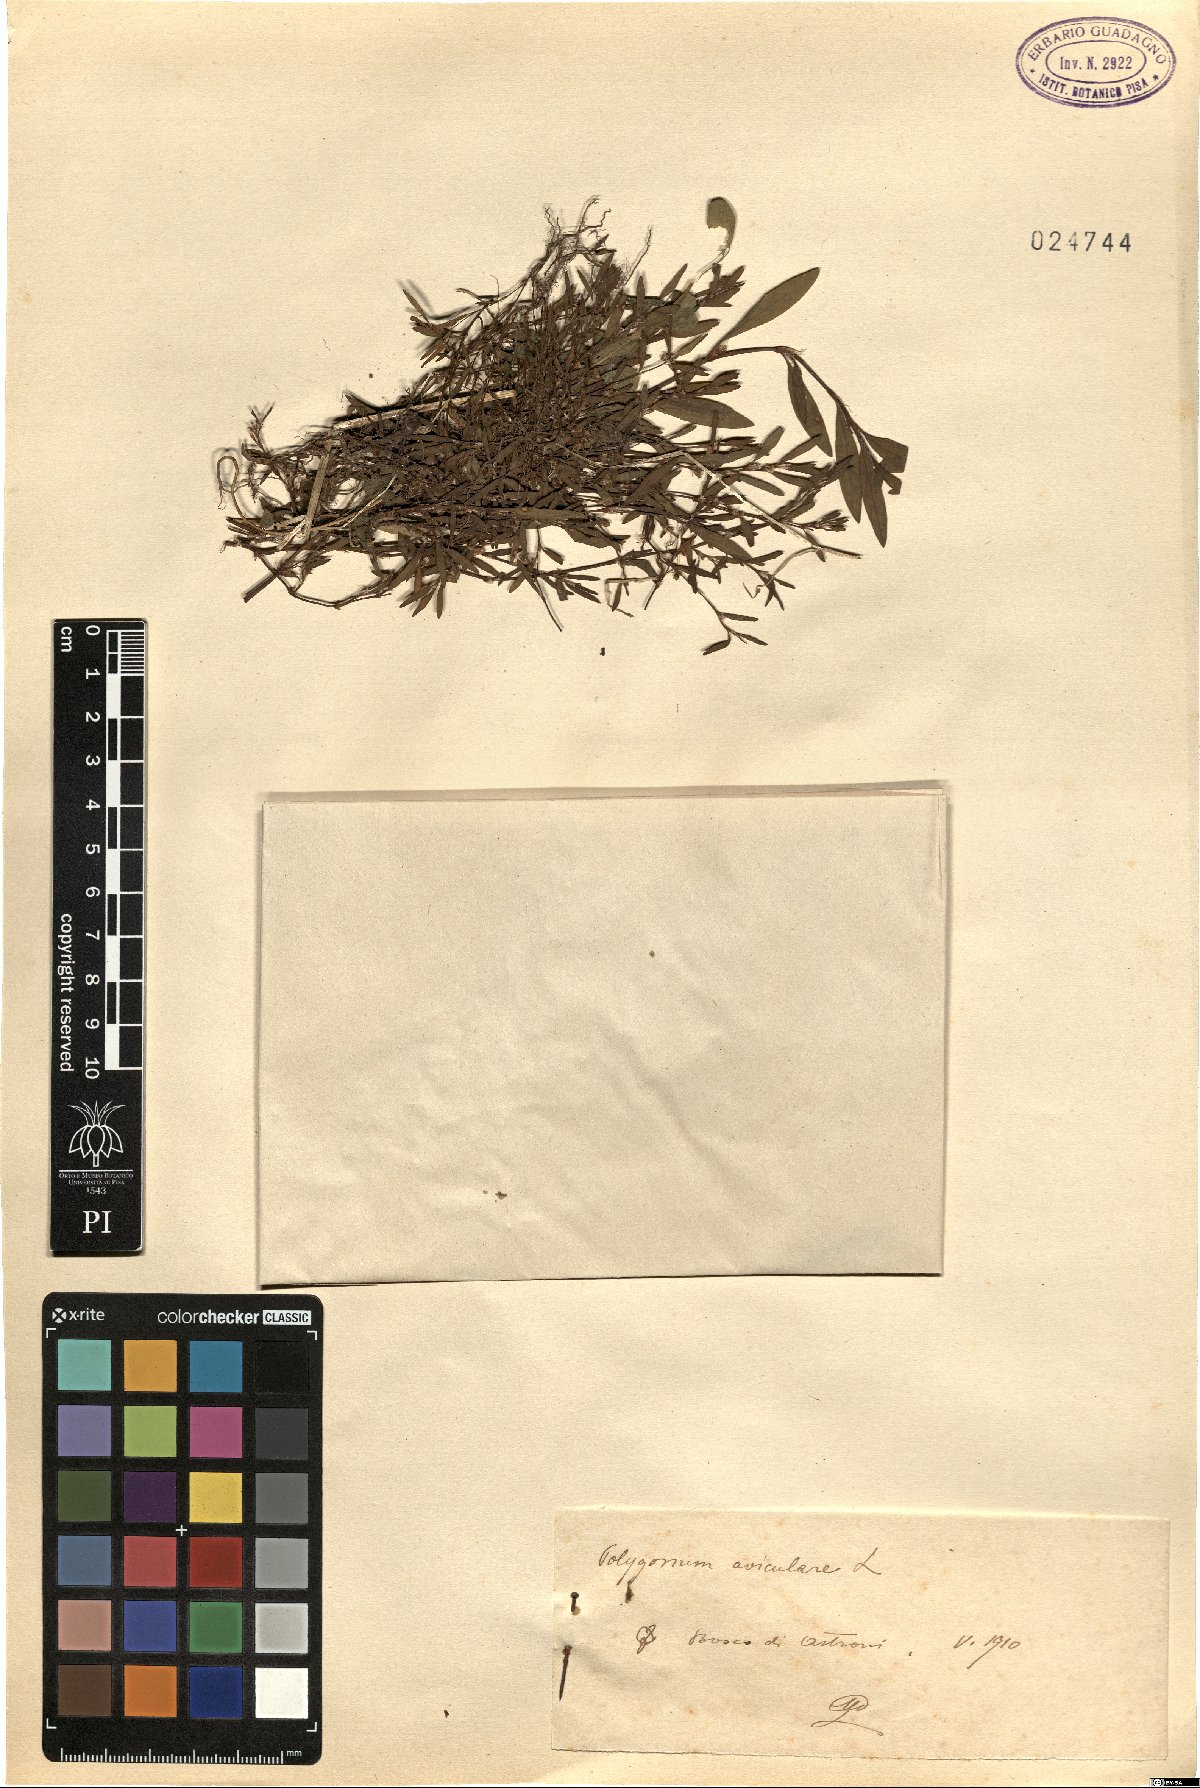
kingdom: Plantae
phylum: Tracheophyta
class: Magnoliopsida
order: Caryophyllales
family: Polygonaceae
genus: Polygonum
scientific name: Polygonum aviculare
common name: Prostrate knotweed
